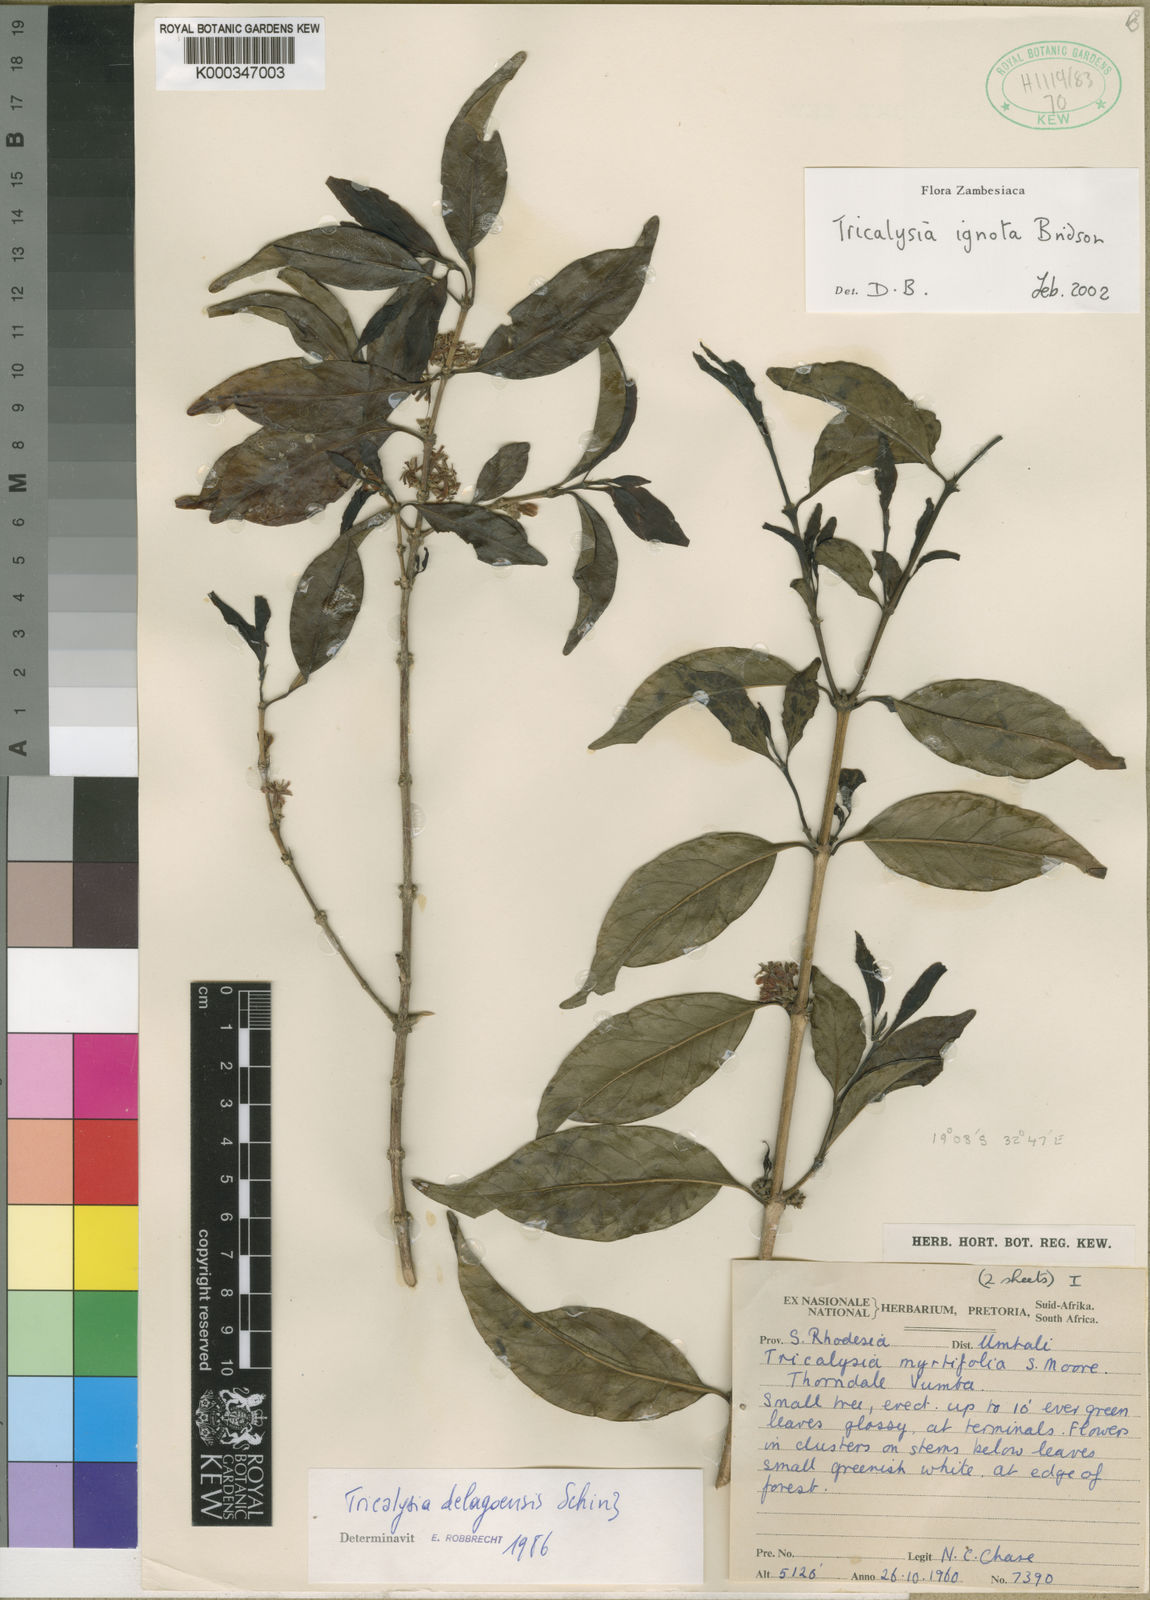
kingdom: Plantae
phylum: Tracheophyta
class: Magnoliopsida
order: Gentianales
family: Rubiaceae
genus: Tricalysia
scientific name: Tricalysia ignota
